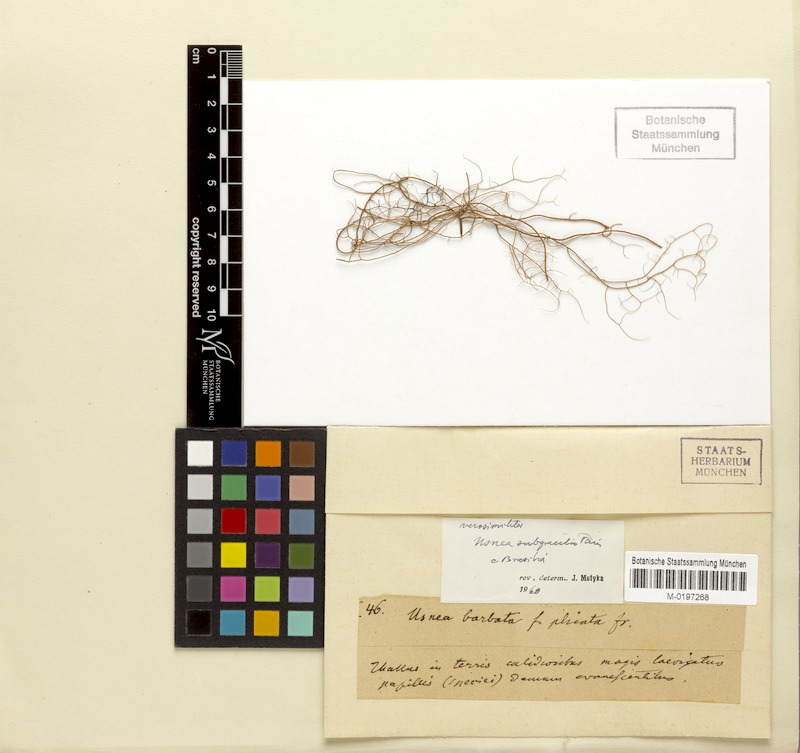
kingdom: Fungi
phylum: Ascomycota
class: Lecanoromycetes
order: Lecanorales
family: Parmeliaceae
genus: Usnea
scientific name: Usnea subgracilis
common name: Beard lichen
